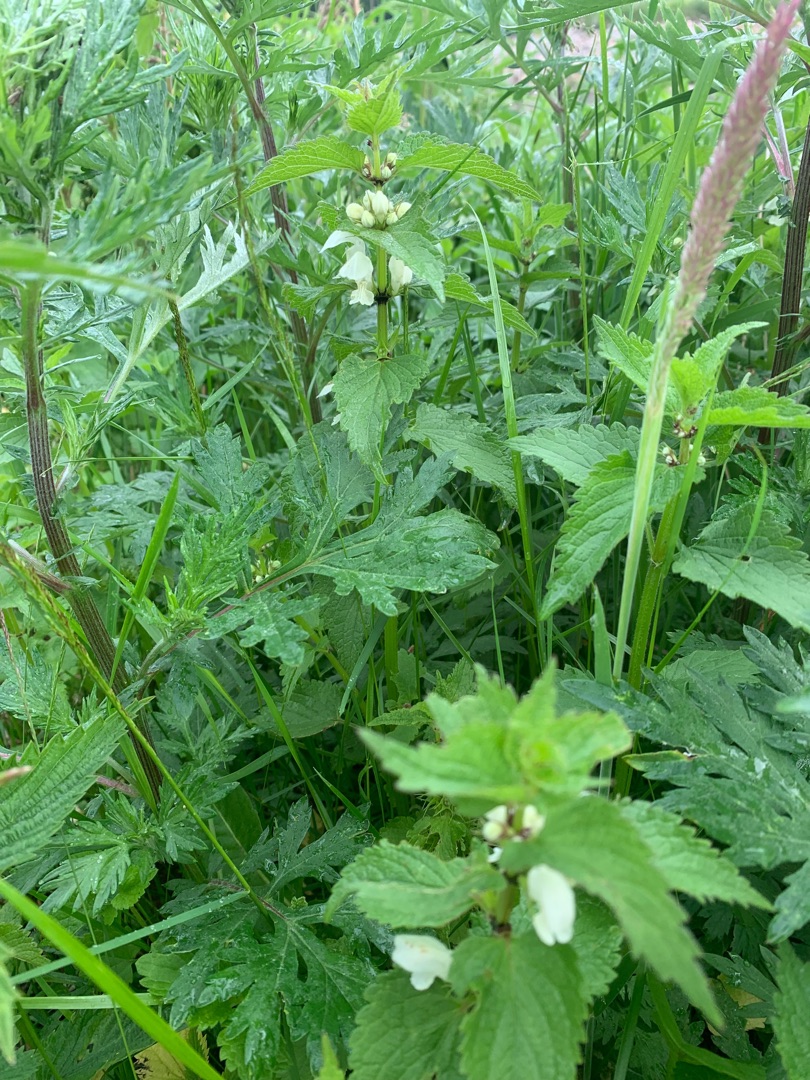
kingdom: Plantae
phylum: Tracheophyta
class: Magnoliopsida
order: Lamiales
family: Lamiaceae
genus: Lamium
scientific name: Lamium album
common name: Døvnælde
